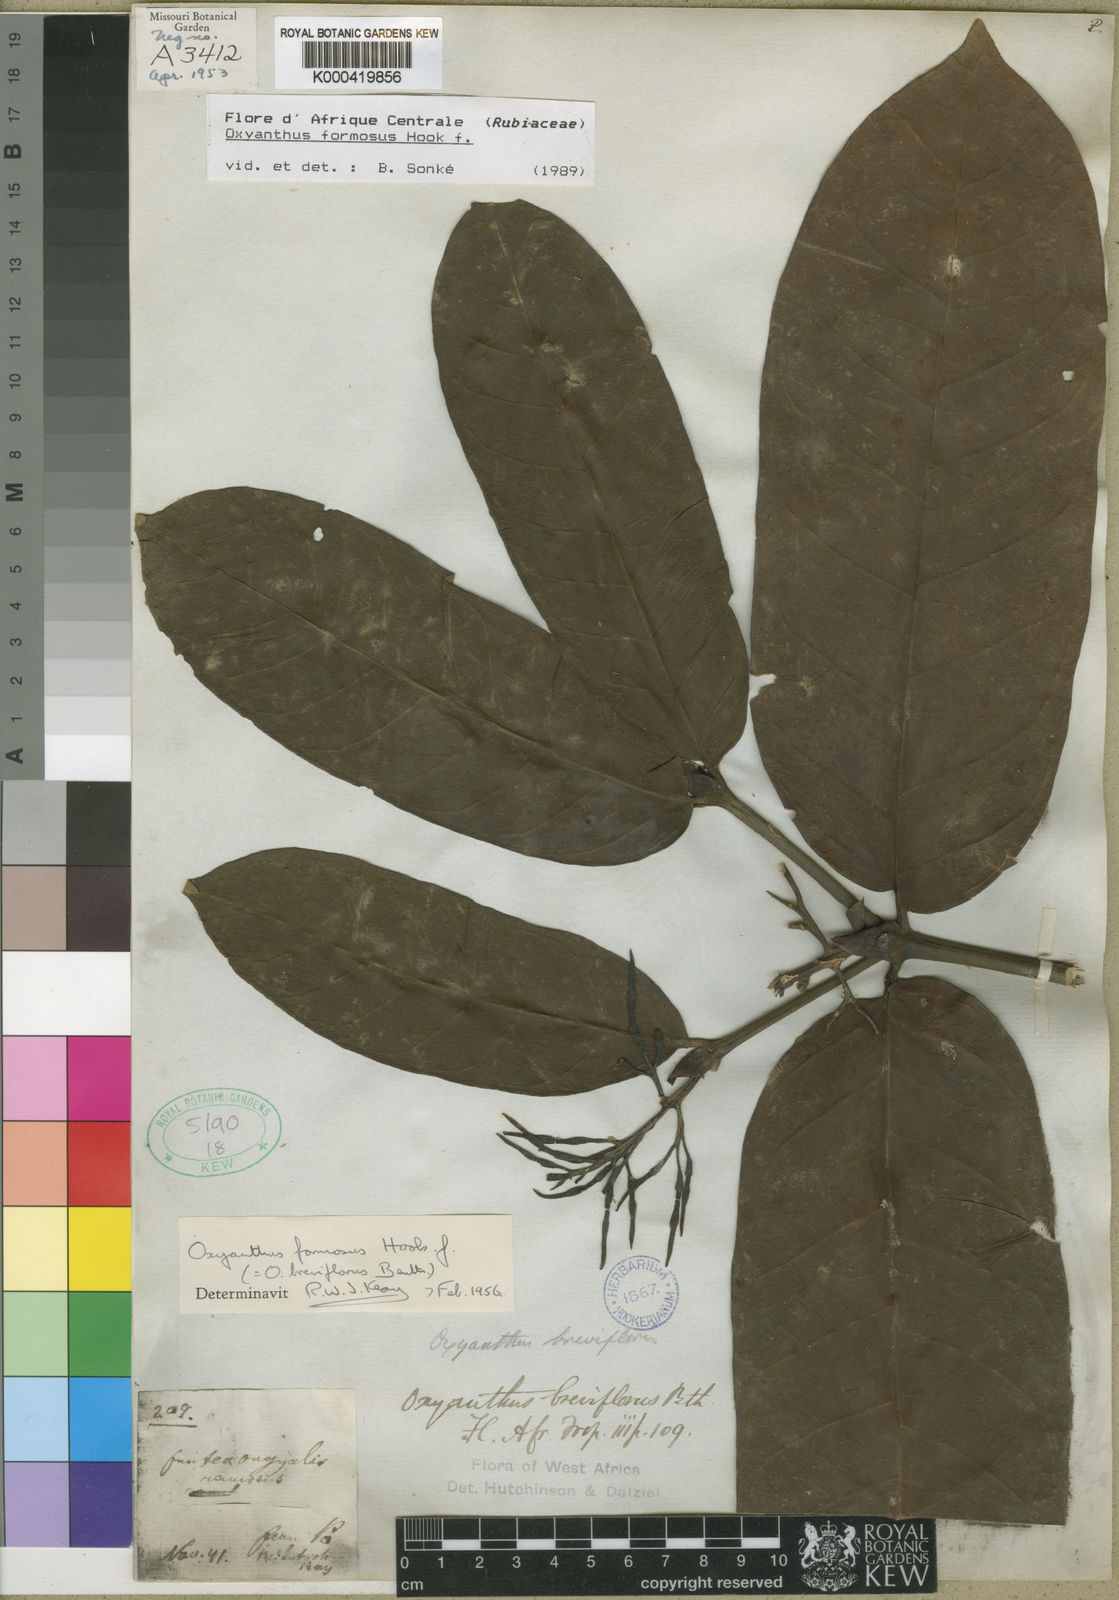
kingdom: Plantae
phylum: Tracheophyta
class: Magnoliopsida
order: Gentianales
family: Rubiaceae
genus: Oxyanthus
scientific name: Oxyanthus formosus
